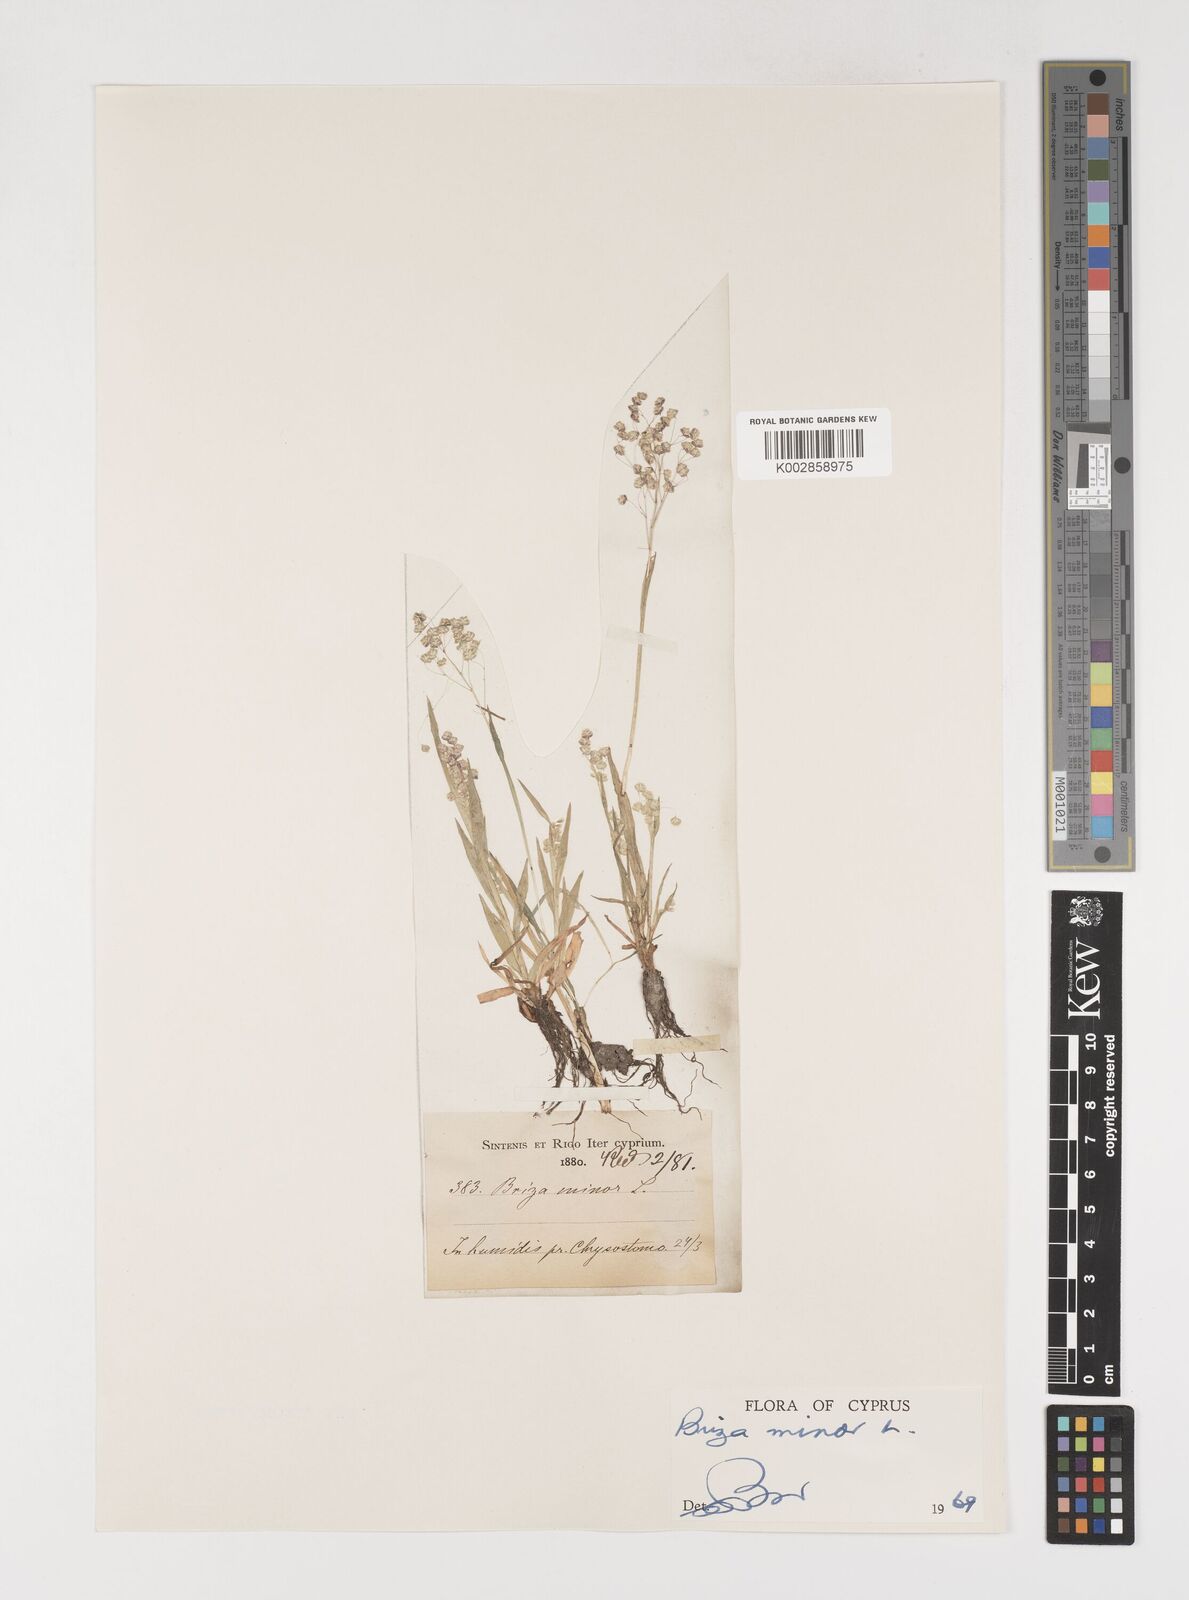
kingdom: Plantae
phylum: Tracheophyta
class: Liliopsida
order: Poales
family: Poaceae
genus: Briza
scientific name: Briza minor
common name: Lesser quaking-grass
